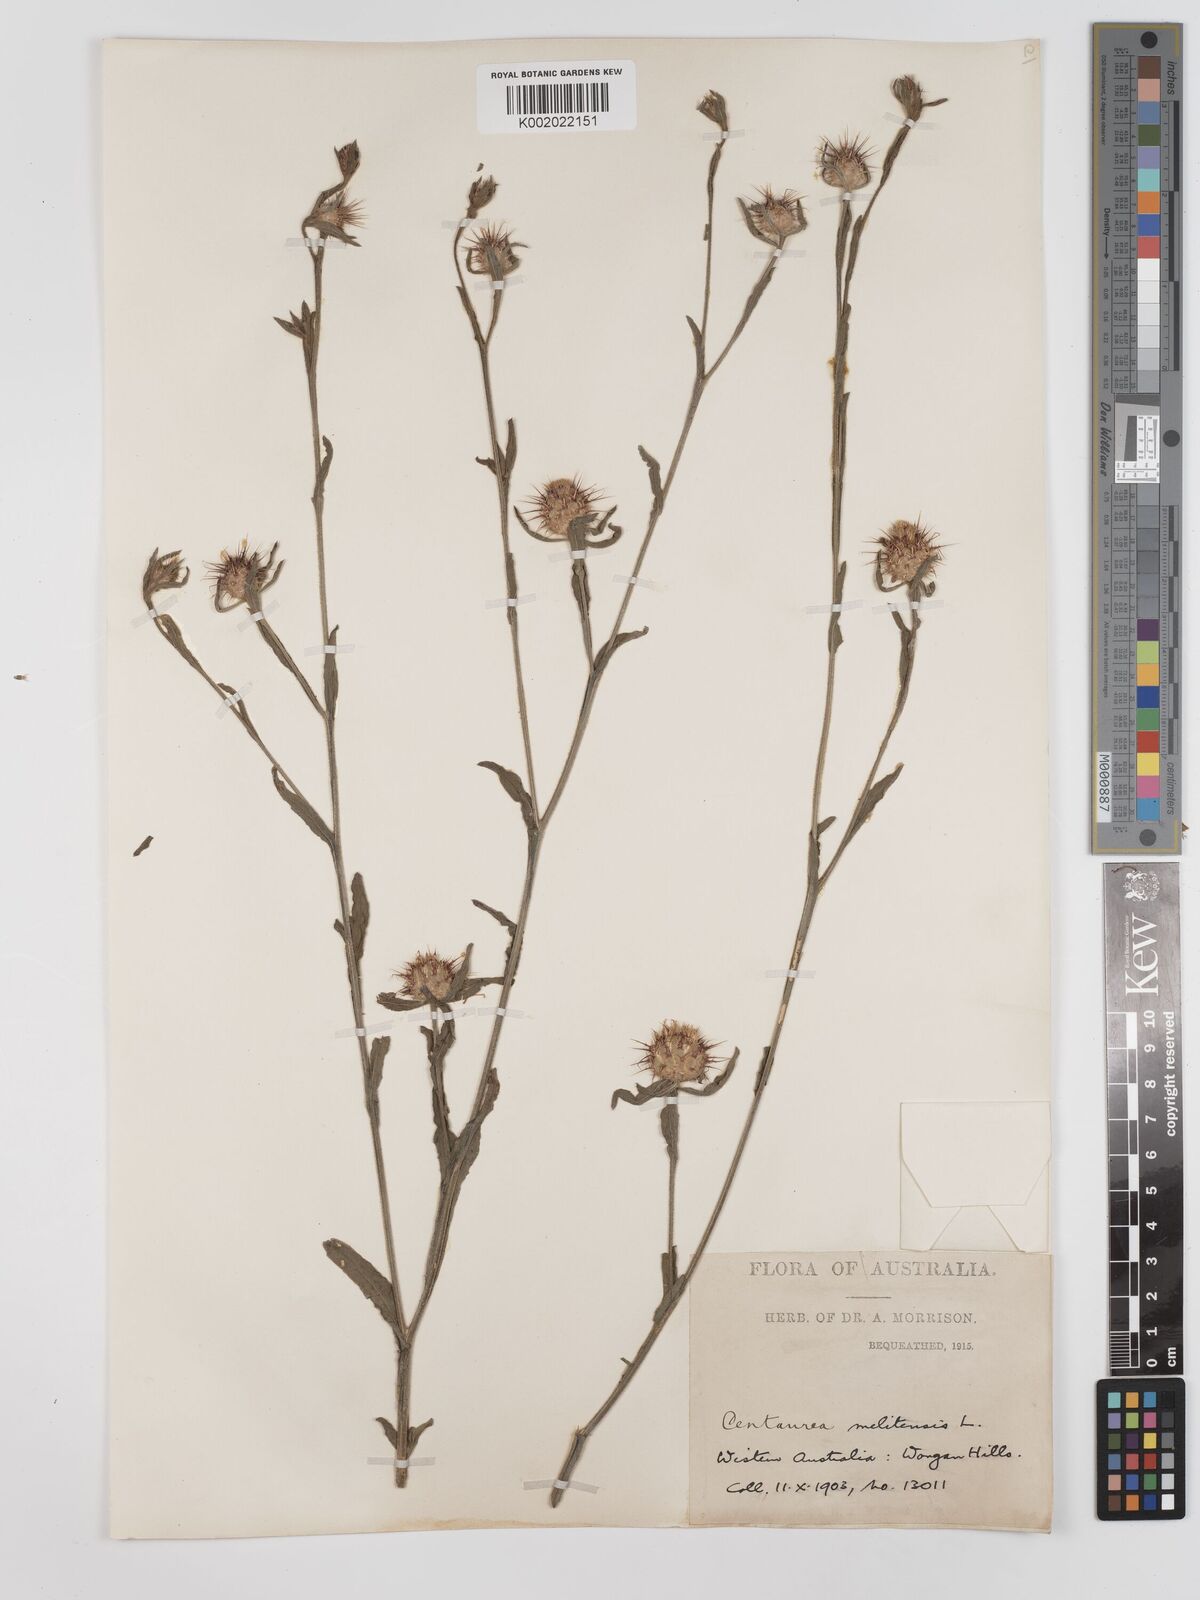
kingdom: Plantae
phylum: Tracheophyta
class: Magnoliopsida
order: Asterales
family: Asteraceae
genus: Centaurea
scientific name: Centaurea melitensis
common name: Maltese star-thistle
